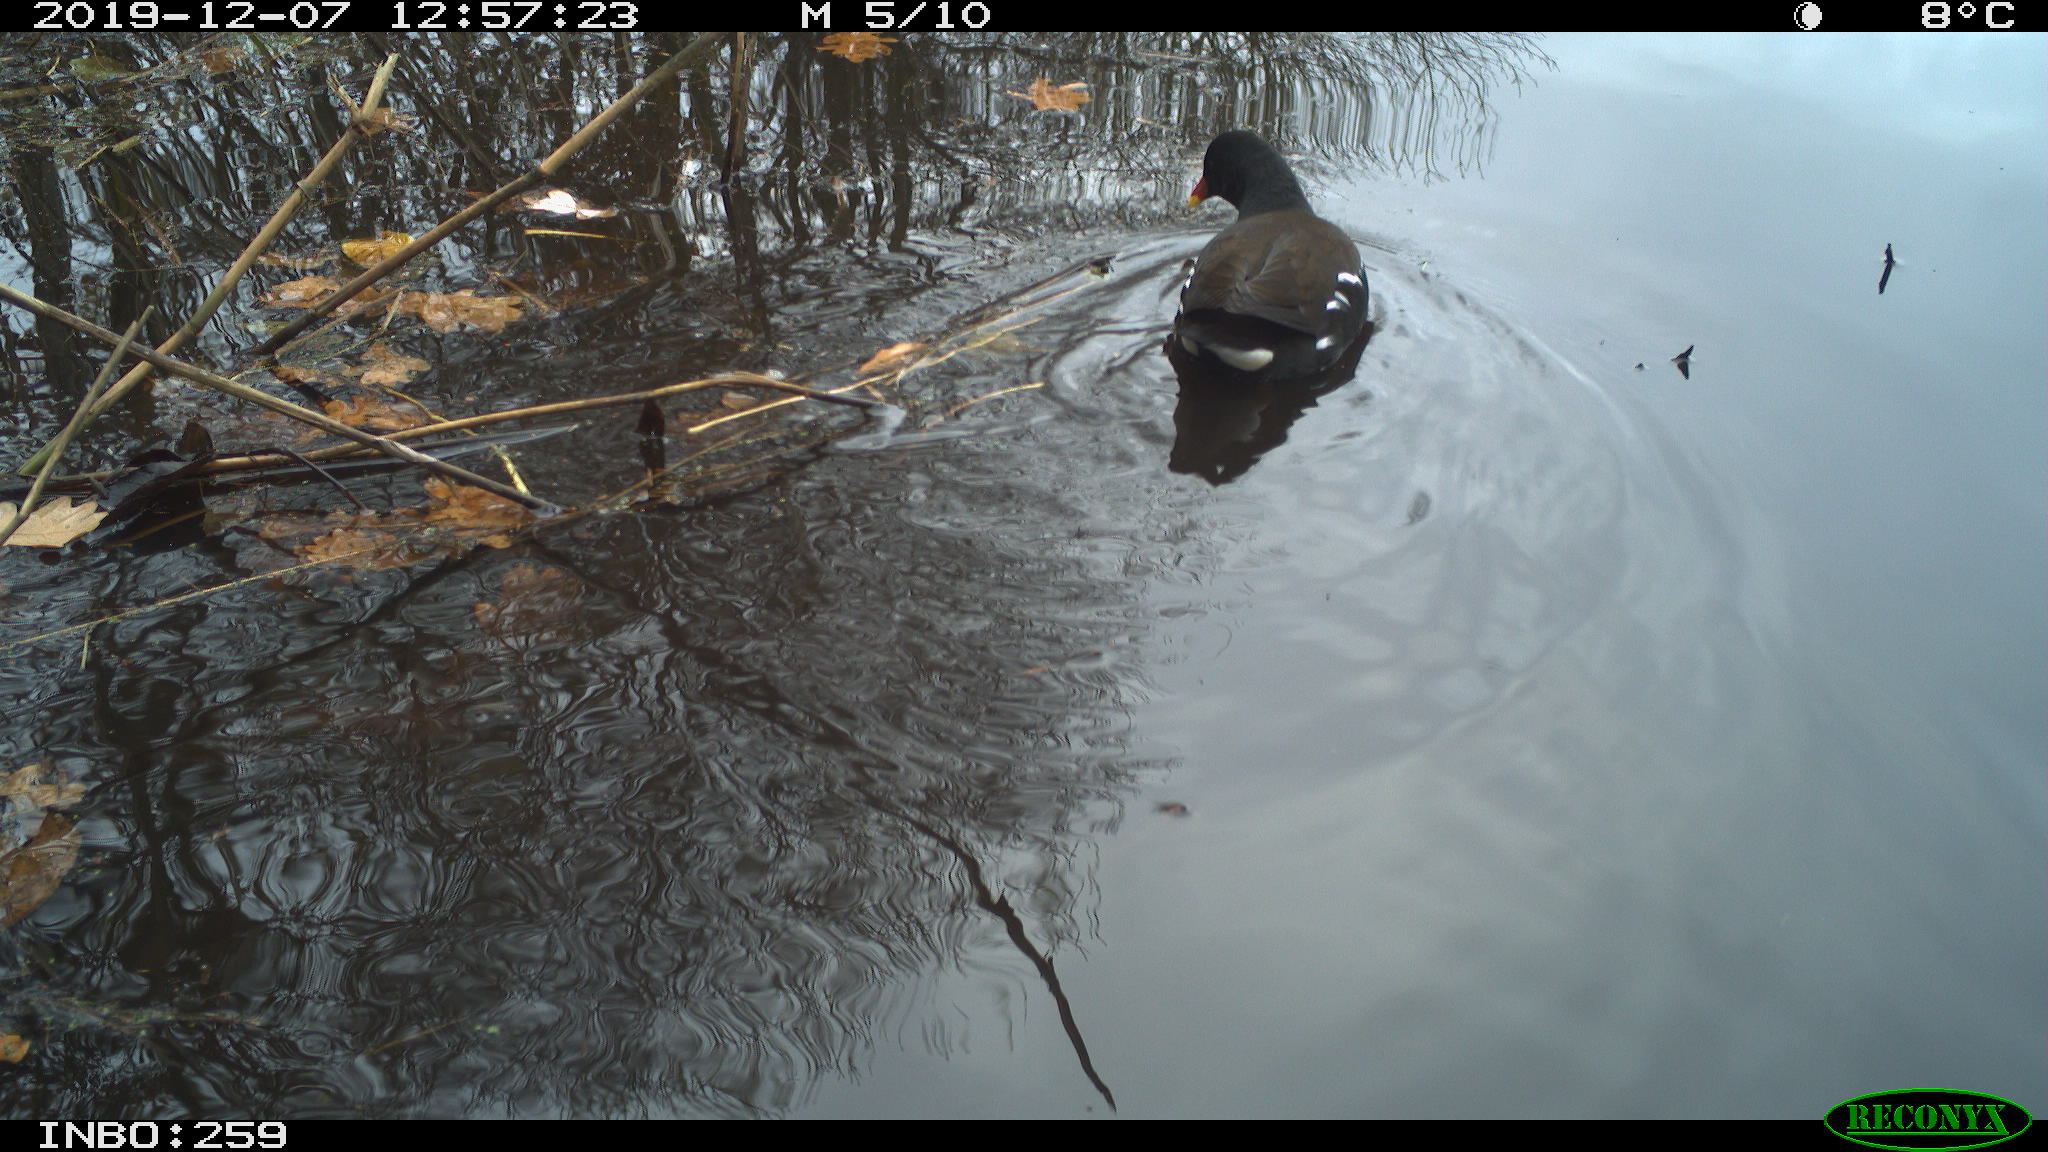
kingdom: Animalia
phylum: Chordata
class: Aves
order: Gruiformes
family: Rallidae
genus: Gallinula
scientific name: Gallinula chloropus
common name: Common moorhen
